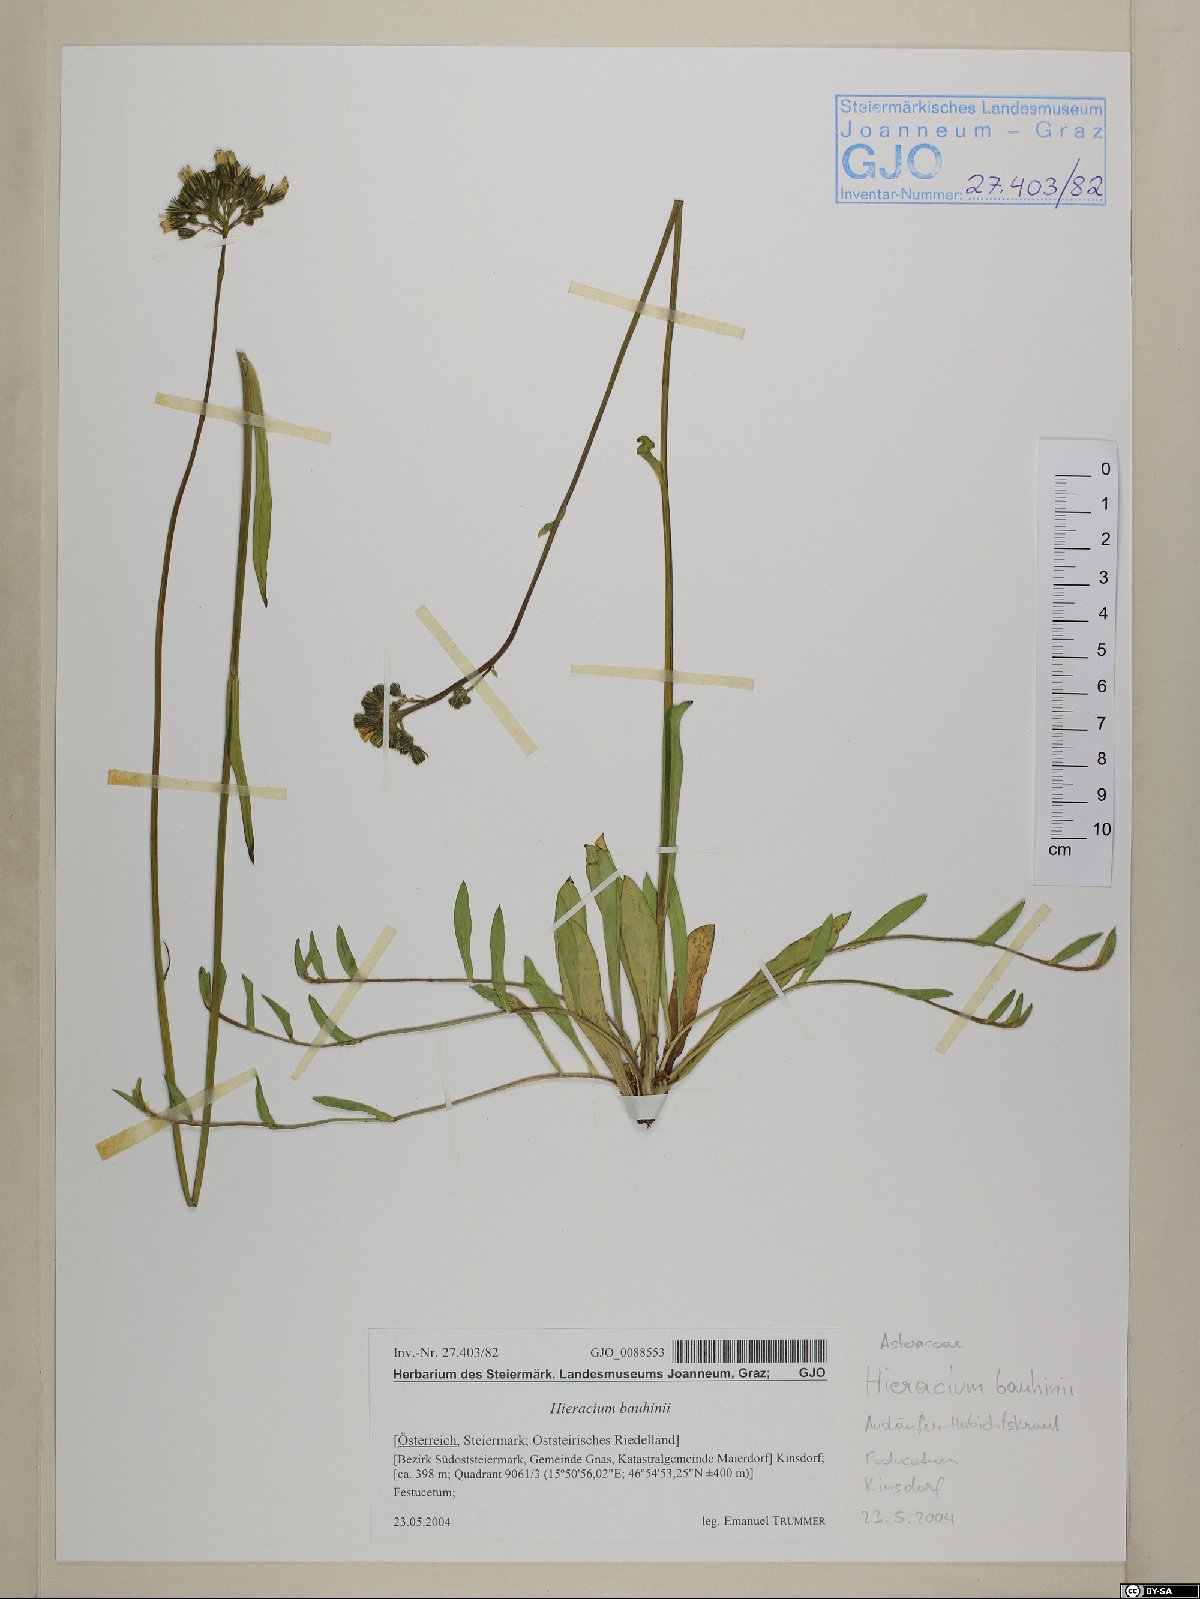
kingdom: Plantae
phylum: Tracheophyta
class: Magnoliopsida
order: Asterales
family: Asteraceae
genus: Pilosella
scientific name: Pilosella bauhini
